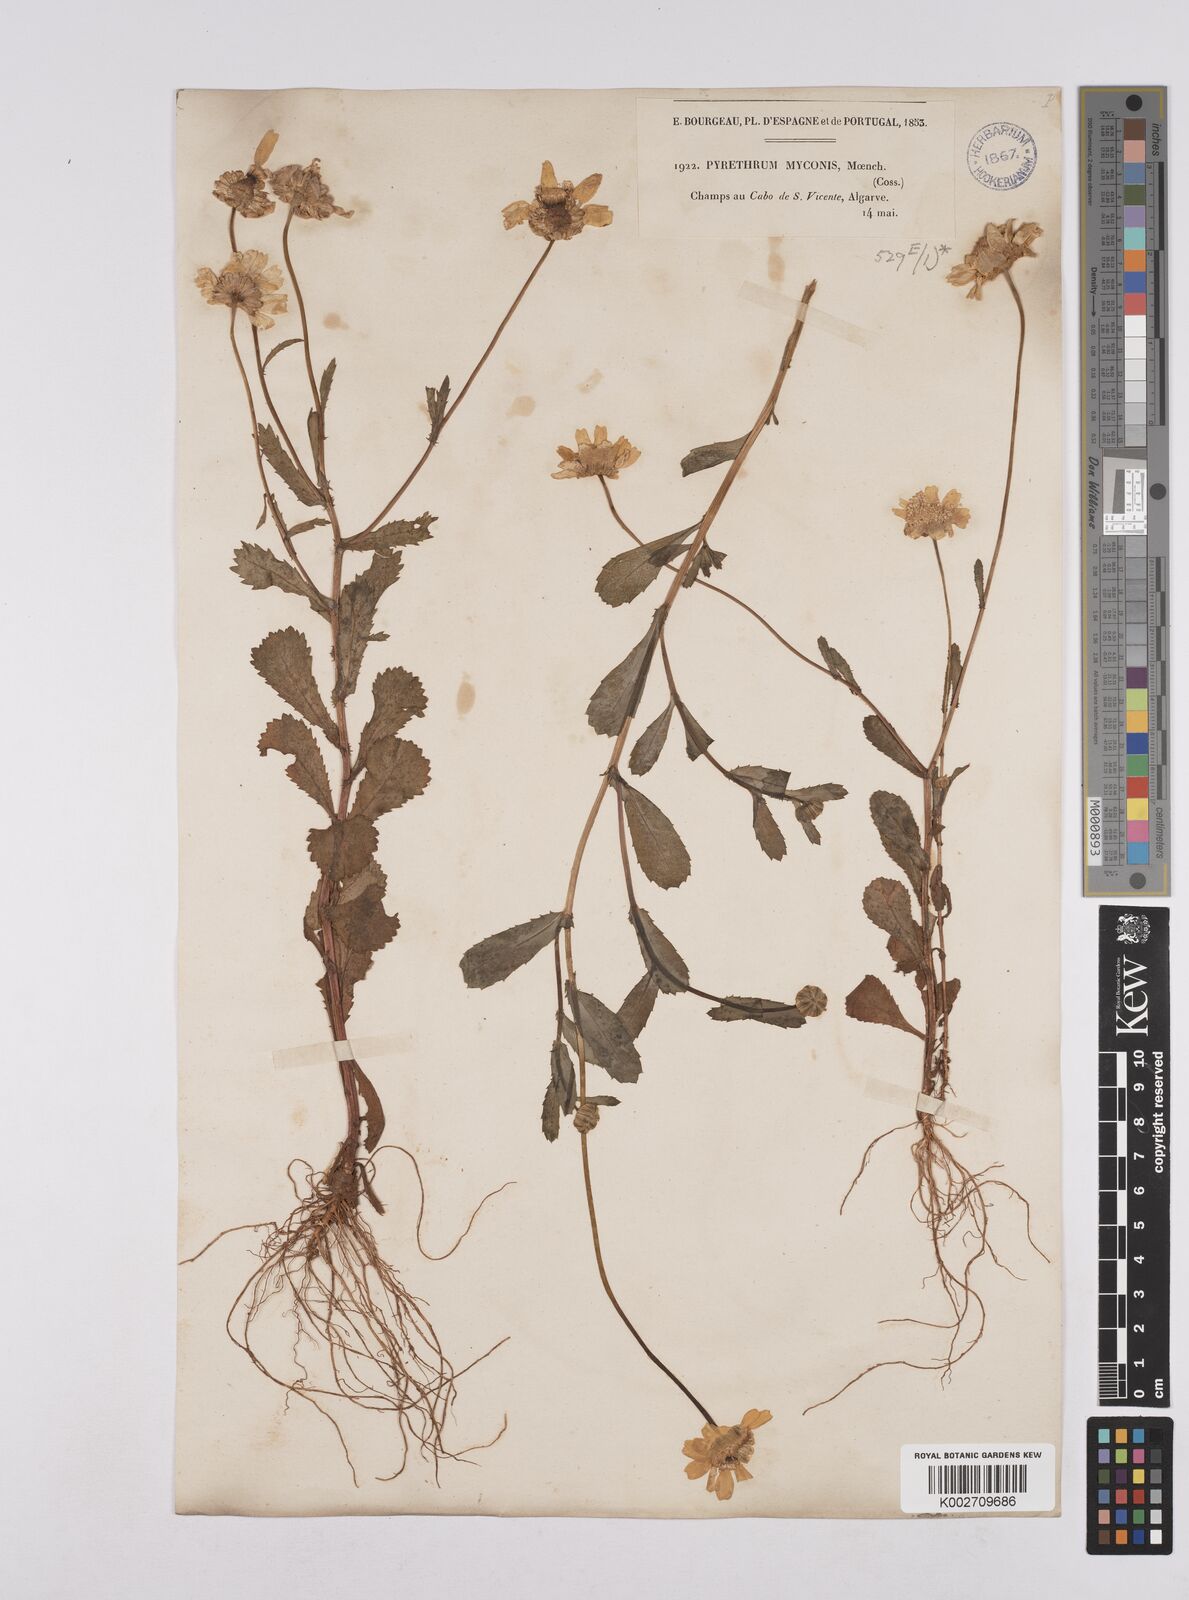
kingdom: Plantae
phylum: Tracheophyta
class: Magnoliopsida
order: Asterales
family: Asteraceae
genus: Coleostephus
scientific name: Coleostephus myconis
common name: Mediterranean marigold
